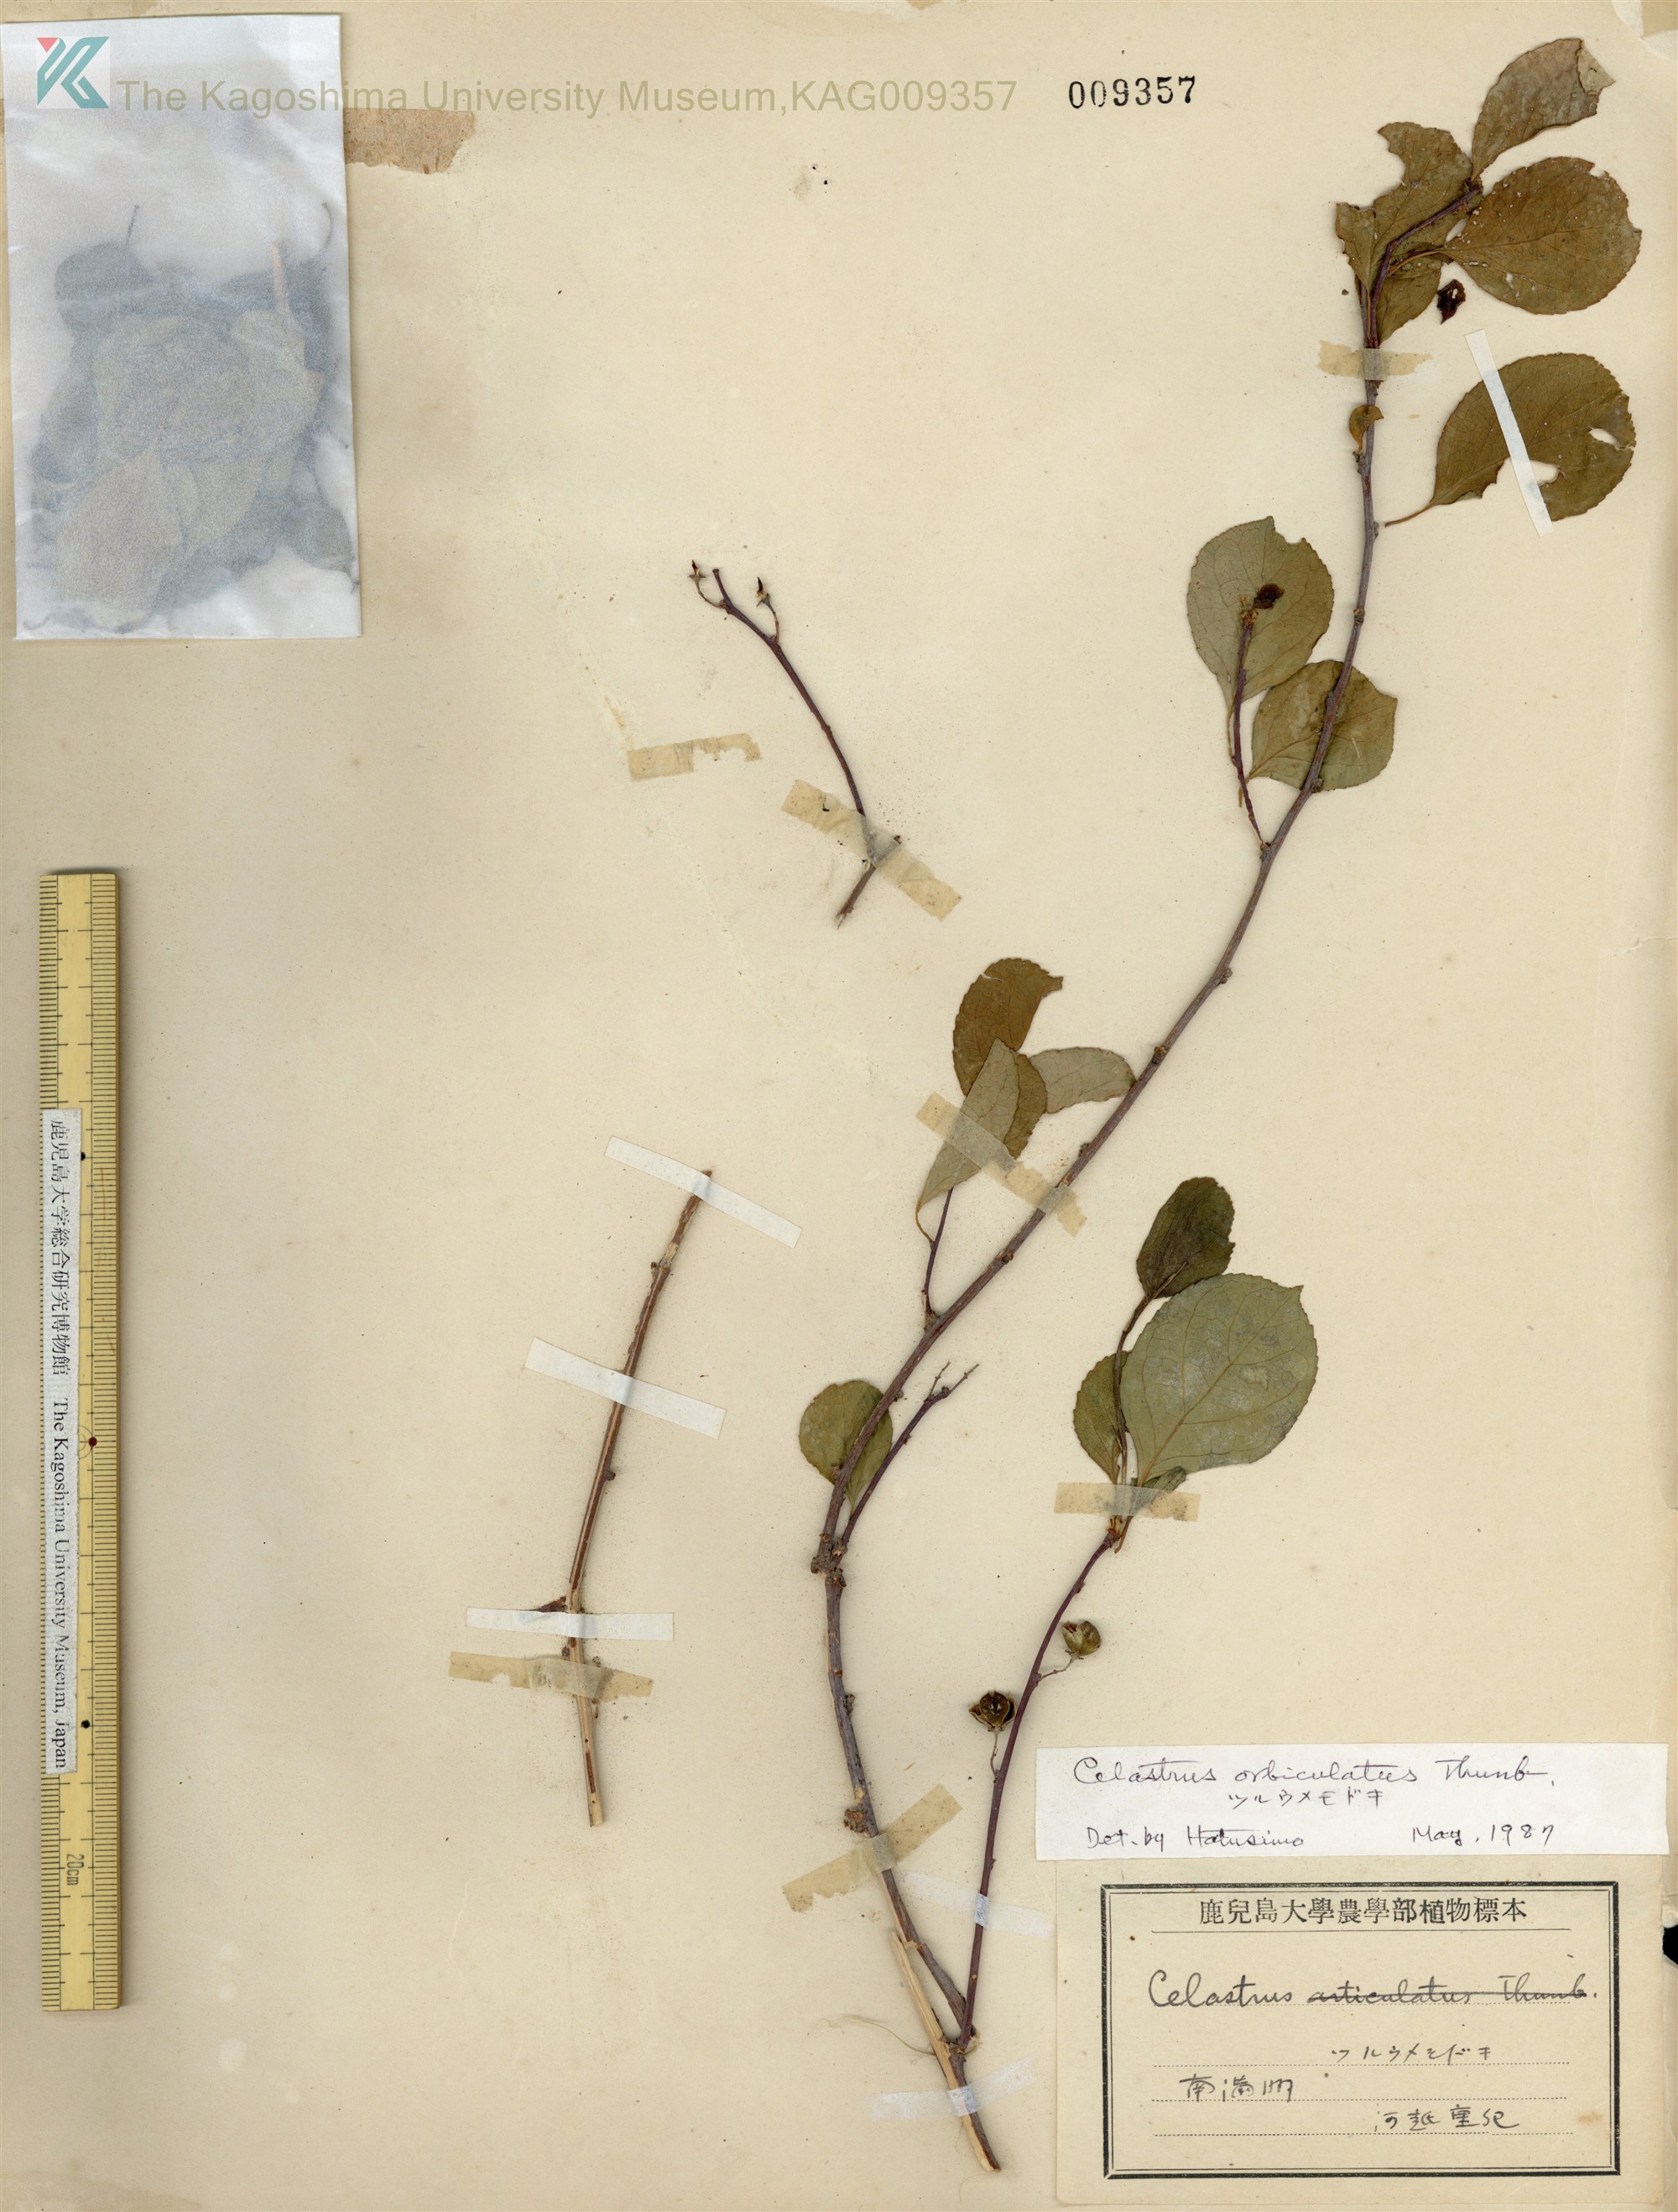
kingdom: Plantae
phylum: Tracheophyta
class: Magnoliopsida
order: Celastrales
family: Celastraceae
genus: Celastrus
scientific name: Celastrus orbiculatus
